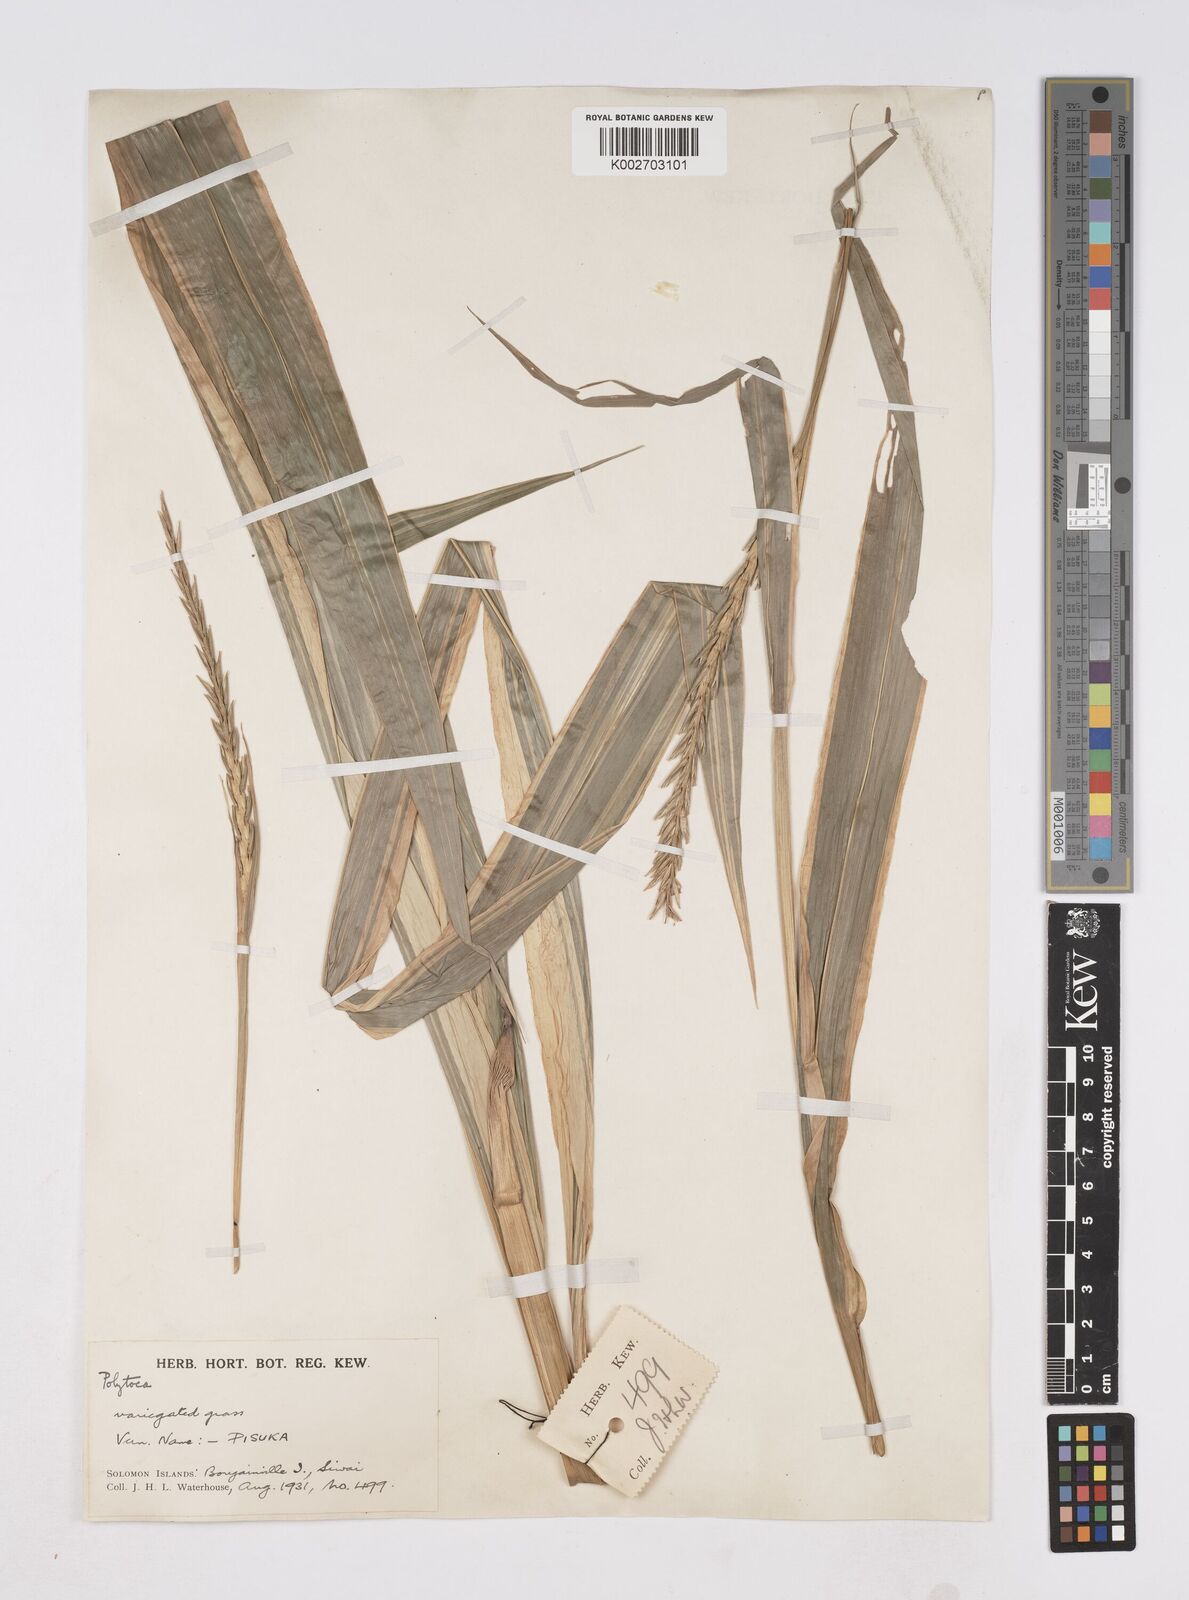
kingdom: Plantae
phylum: Tracheophyta
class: Liliopsida
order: Poales
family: Poaceae
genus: Polytoca
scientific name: Polytoca macrophylla
